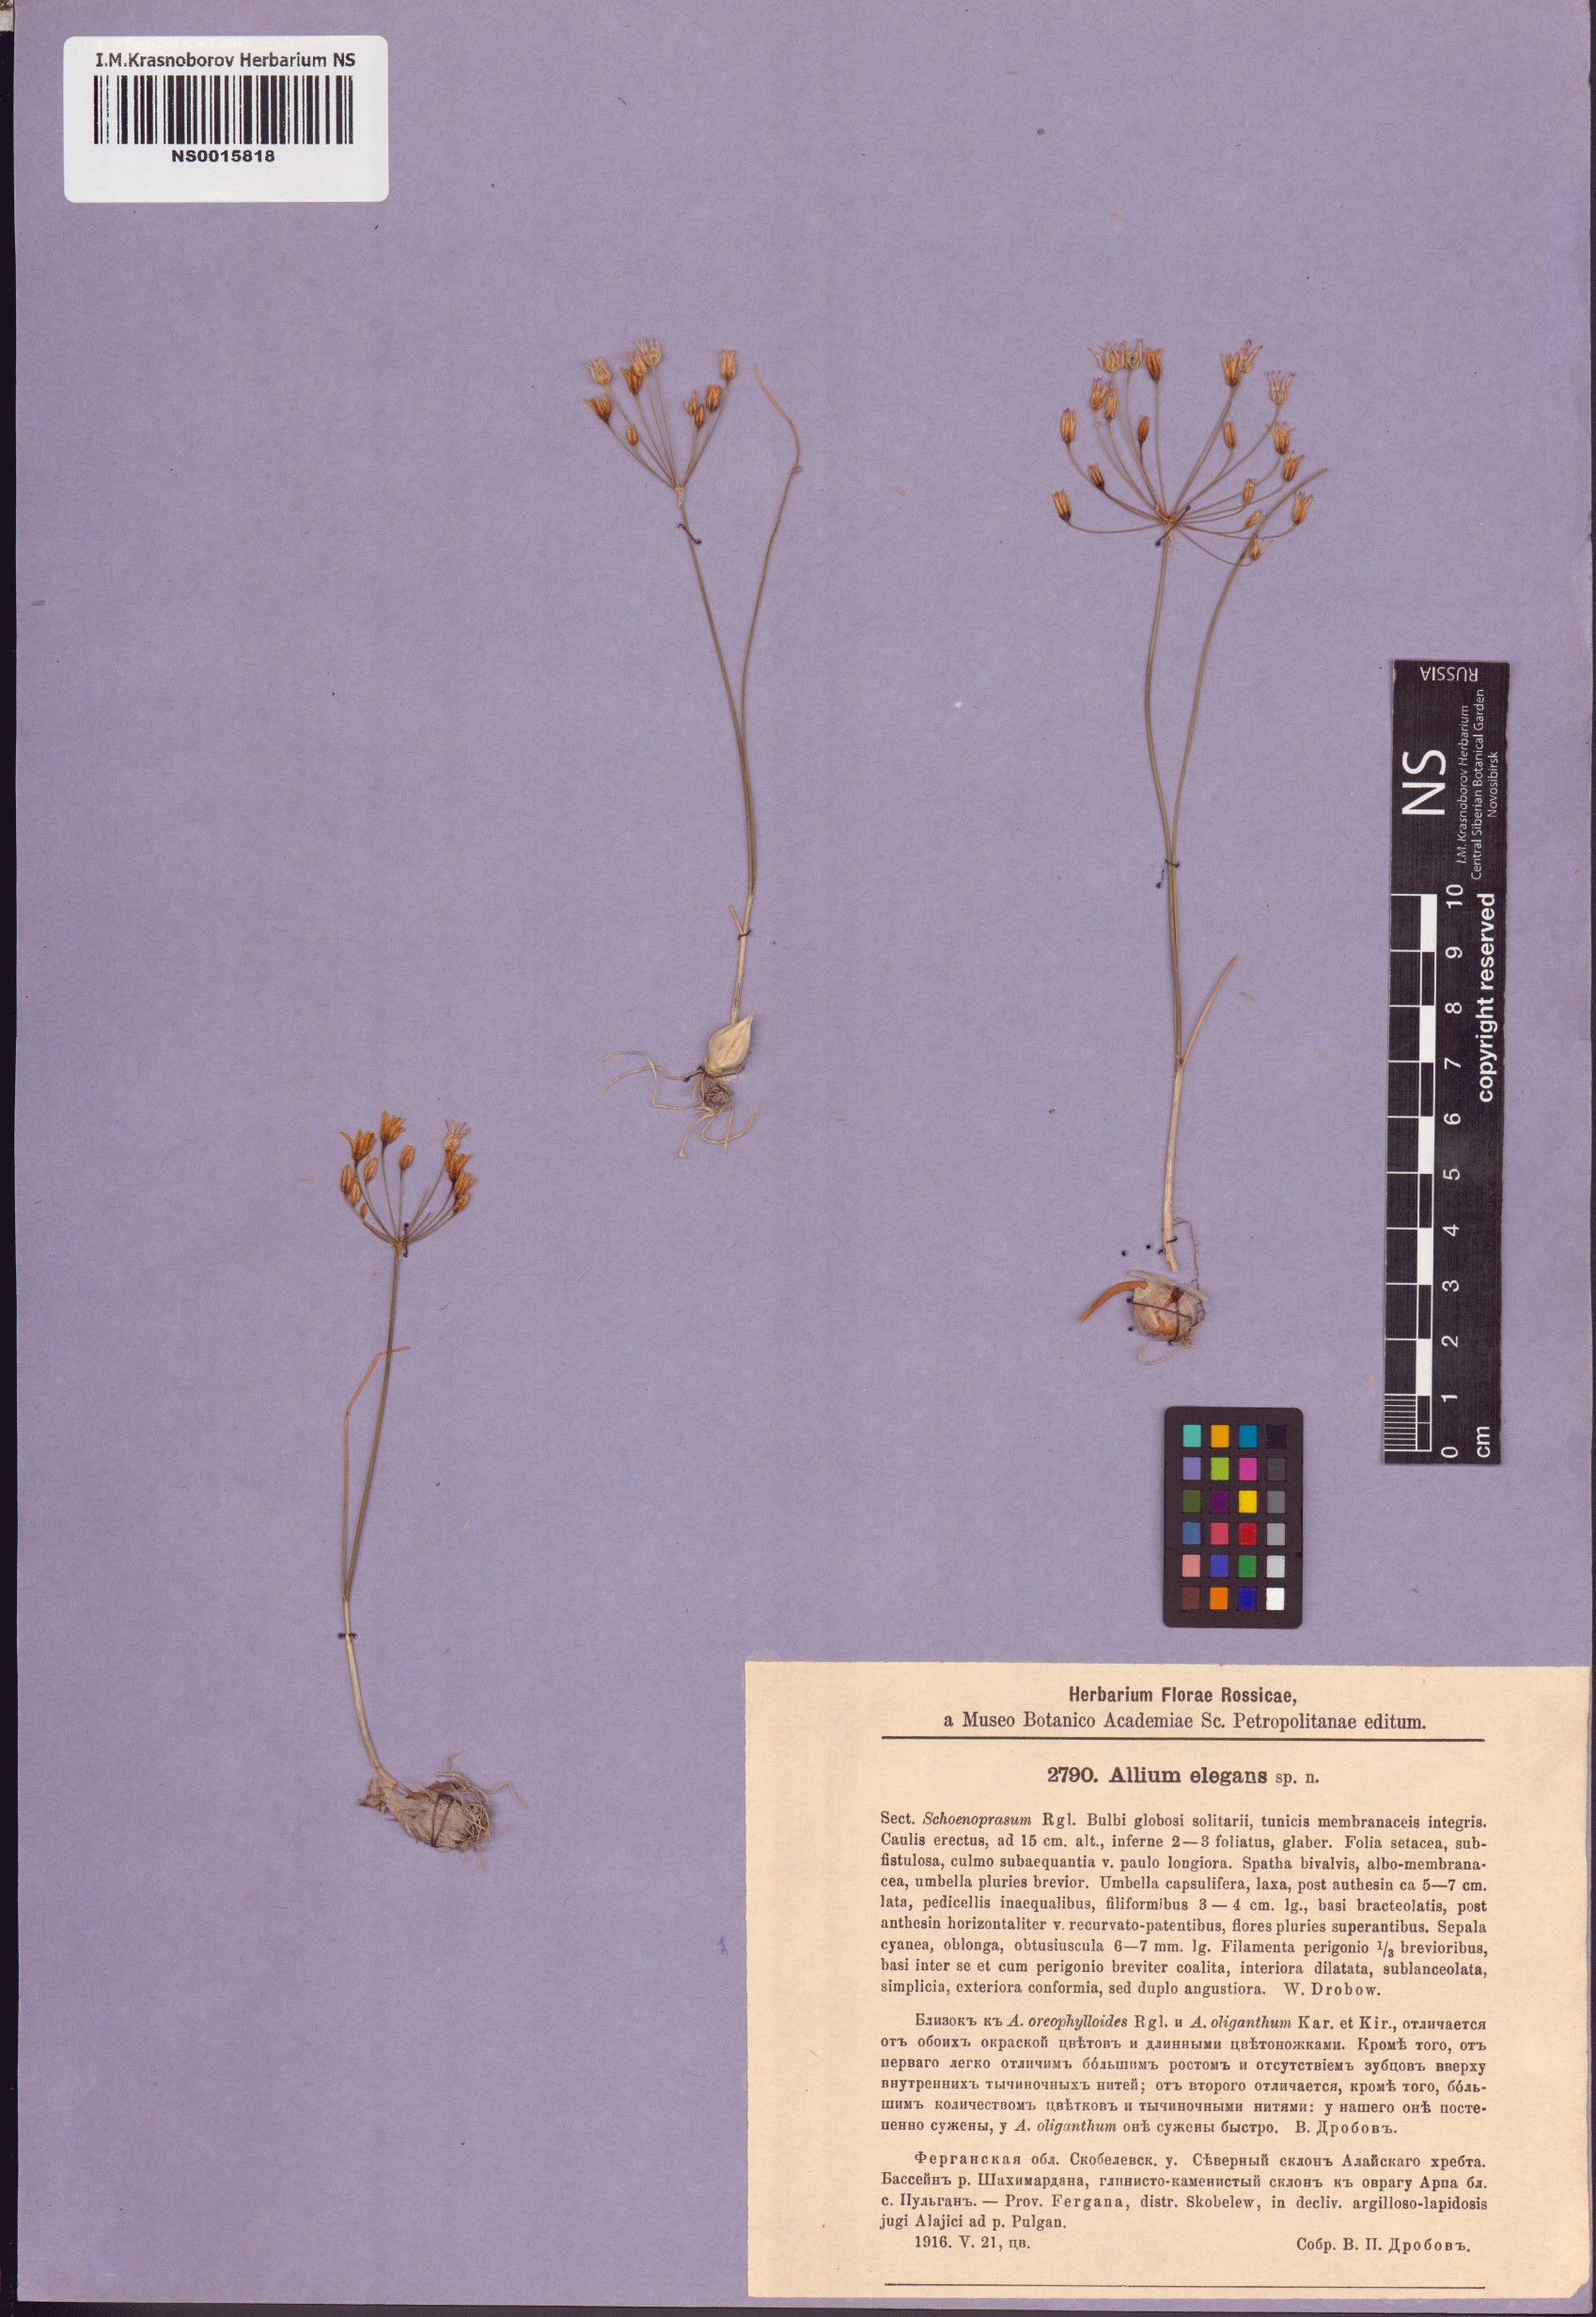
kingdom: Plantae
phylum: Tracheophyta
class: Liliopsida
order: Asparagales
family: Amaryllidaceae
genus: Allium
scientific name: Allium elegans
